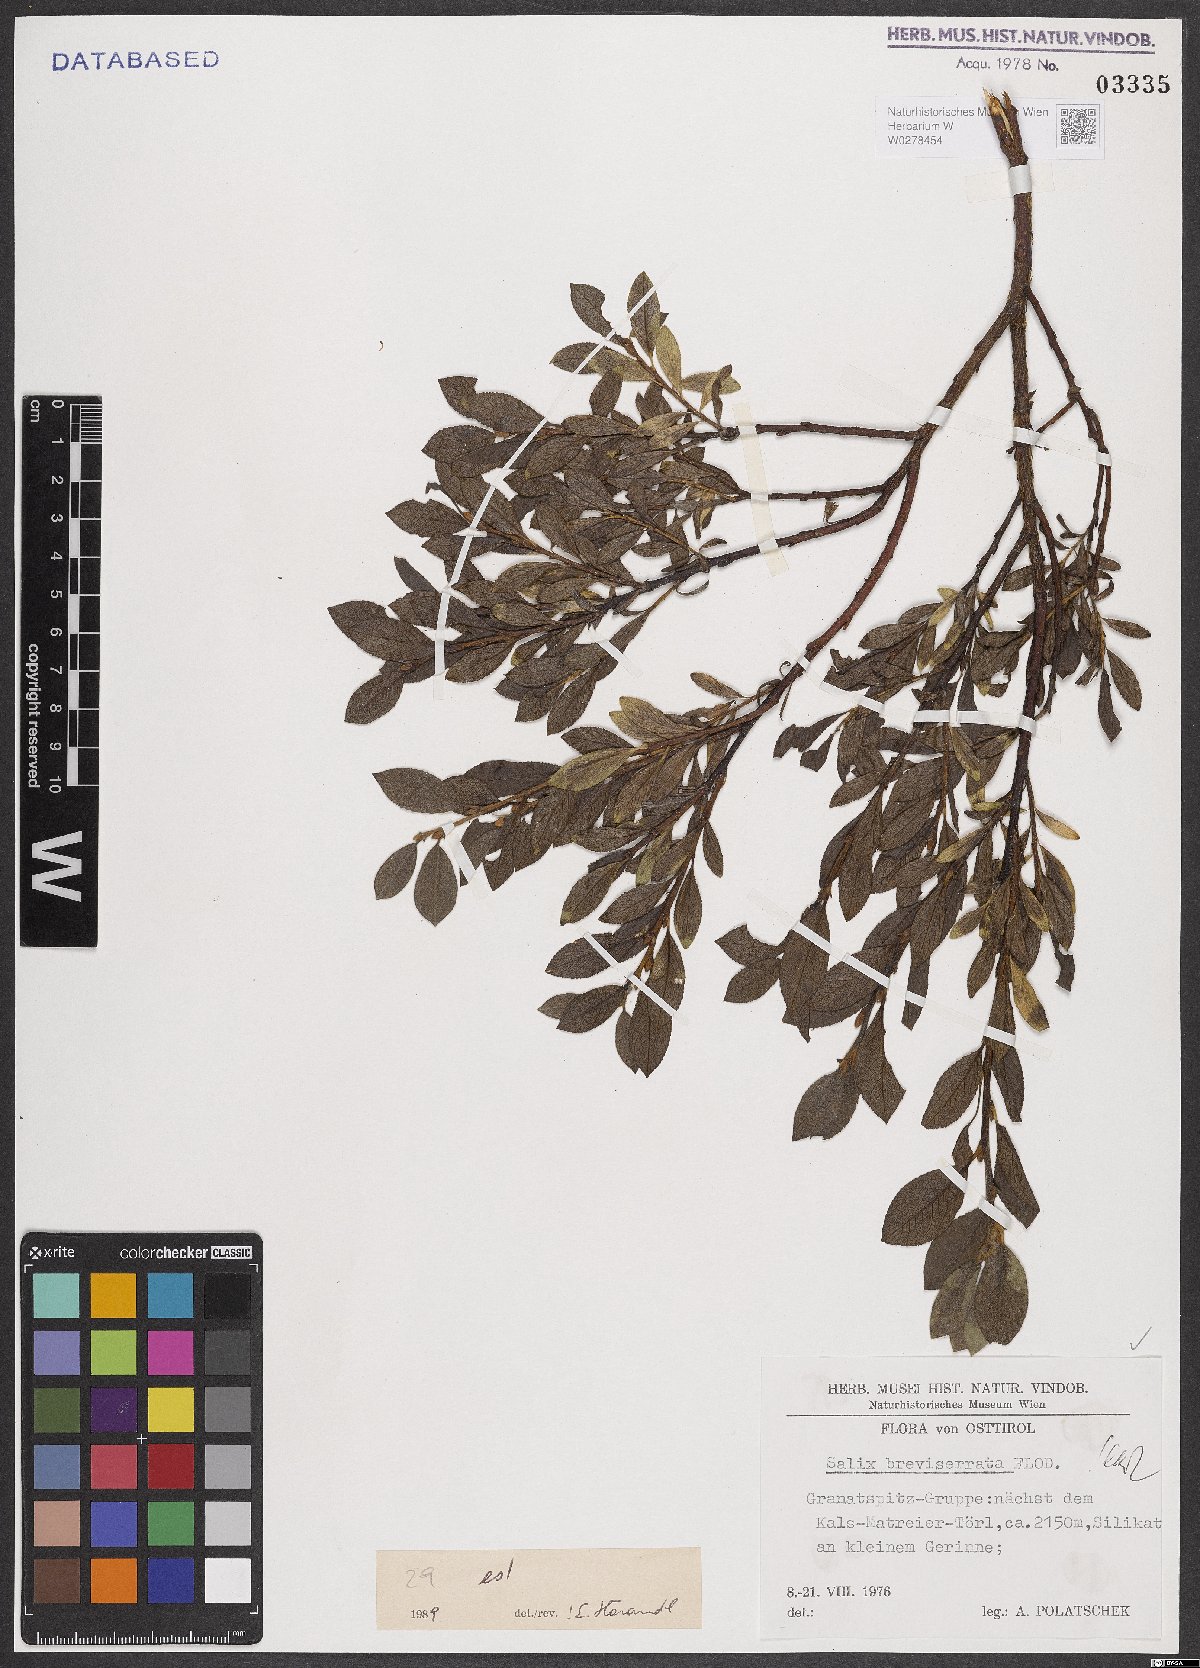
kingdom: Plantae
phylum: Tracheophyta
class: Magnoliopsida
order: Malpighiales
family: Salicaceae
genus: Salix
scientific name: Salix breviserrata
